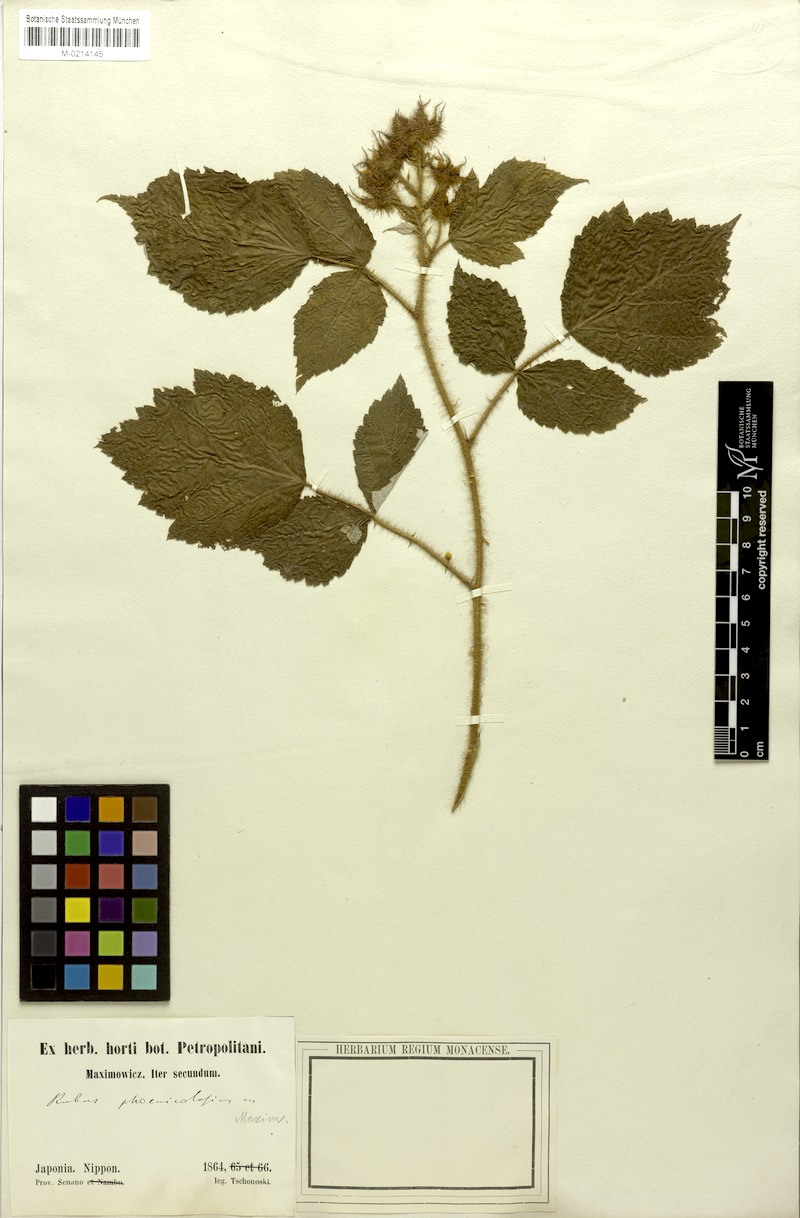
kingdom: Plantae
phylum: Tracheophyta
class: Magnoliopsida
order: Rosales
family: Rosaceae
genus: Rubus
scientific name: Rubus phoenicolasius
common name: Japanese wineberry
